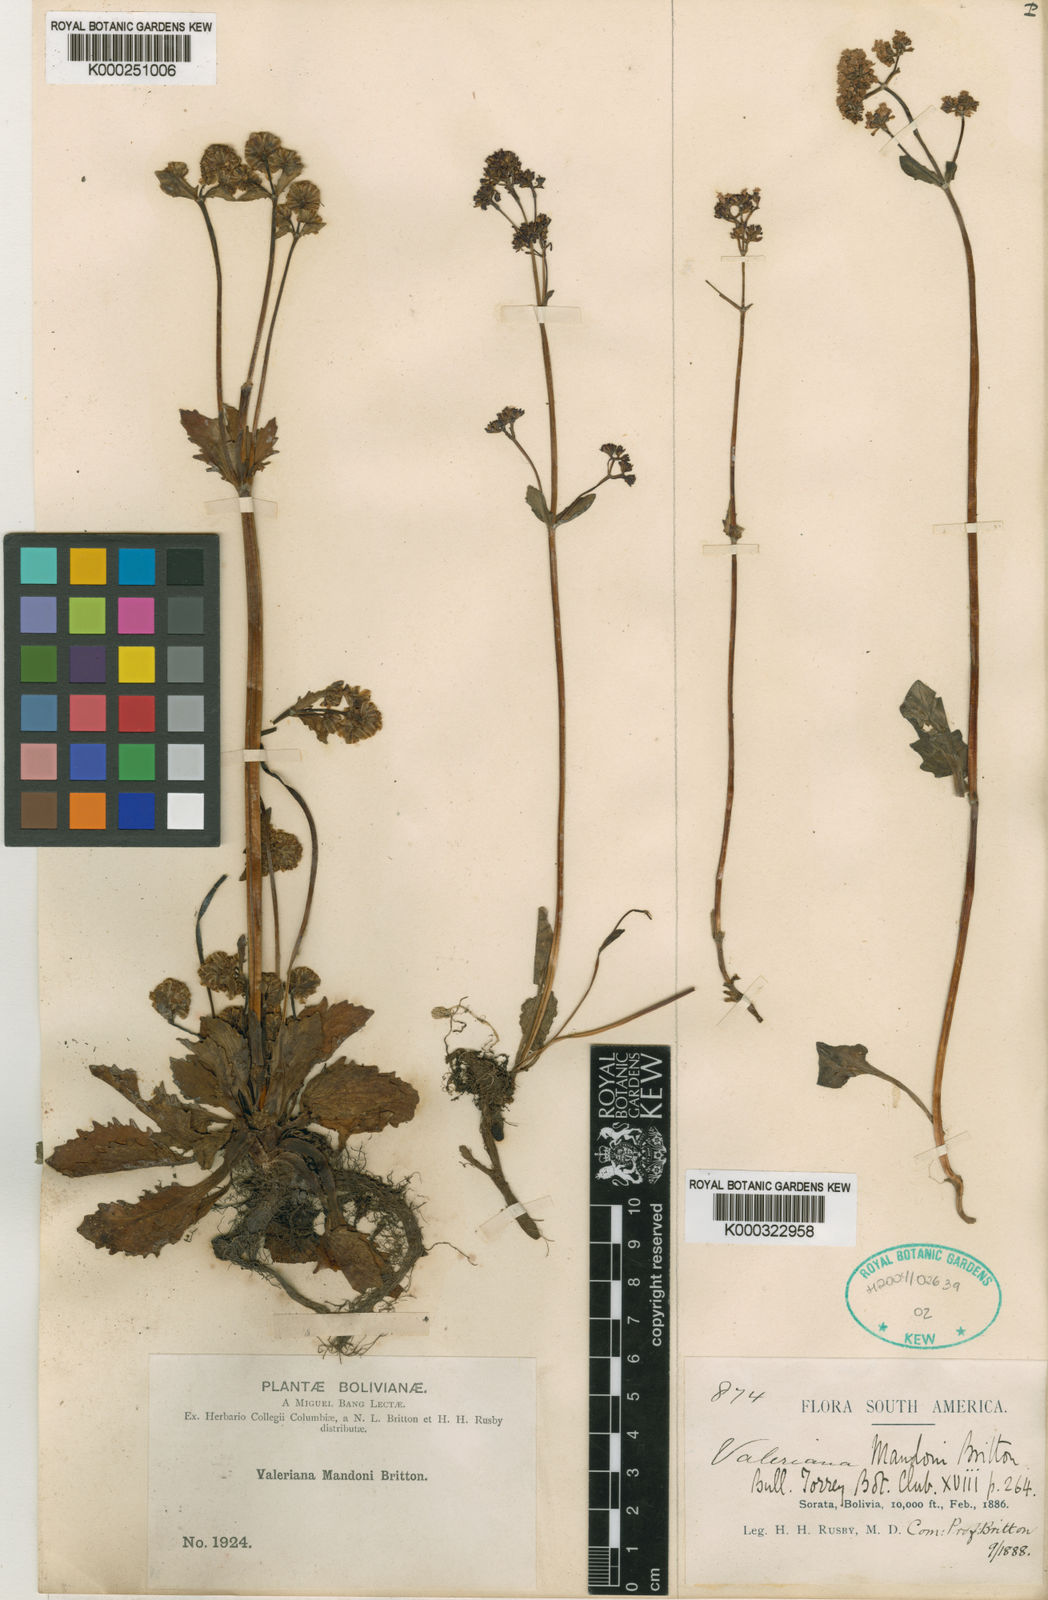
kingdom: Plantae
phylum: Tracheophyta
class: Magnoliopsida
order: Dipsacales
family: Caprifoliaceae
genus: Valeriana
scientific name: Valeriana mandonii
